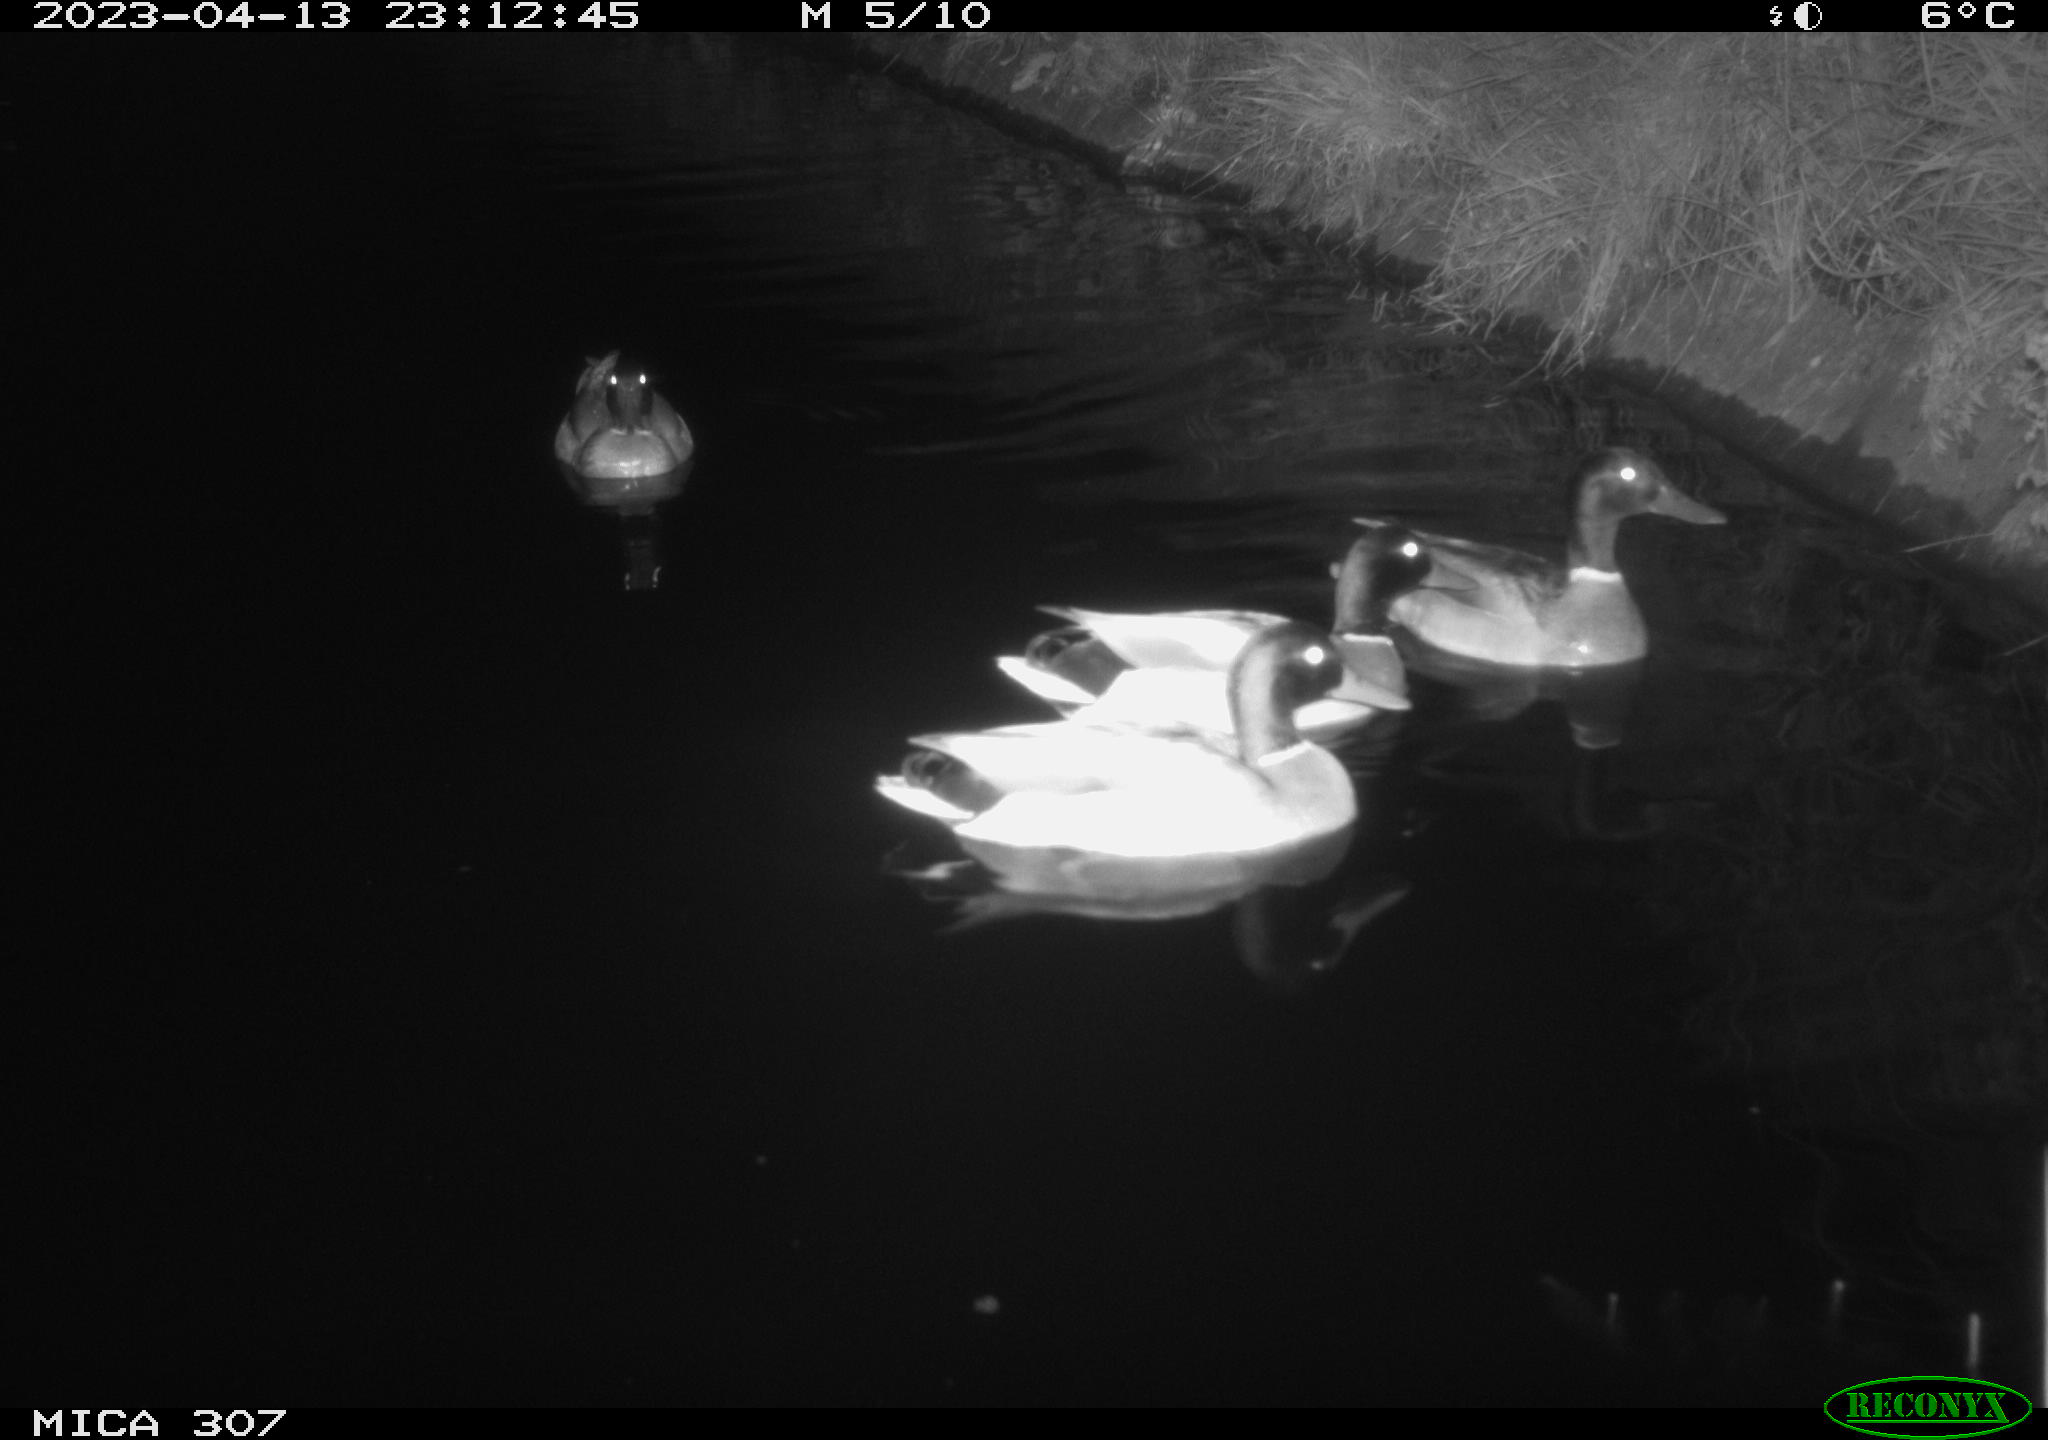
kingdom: Animalia
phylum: Chordata
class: Aves
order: Anseriformes
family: Anatidae
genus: Anas
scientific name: Anas
